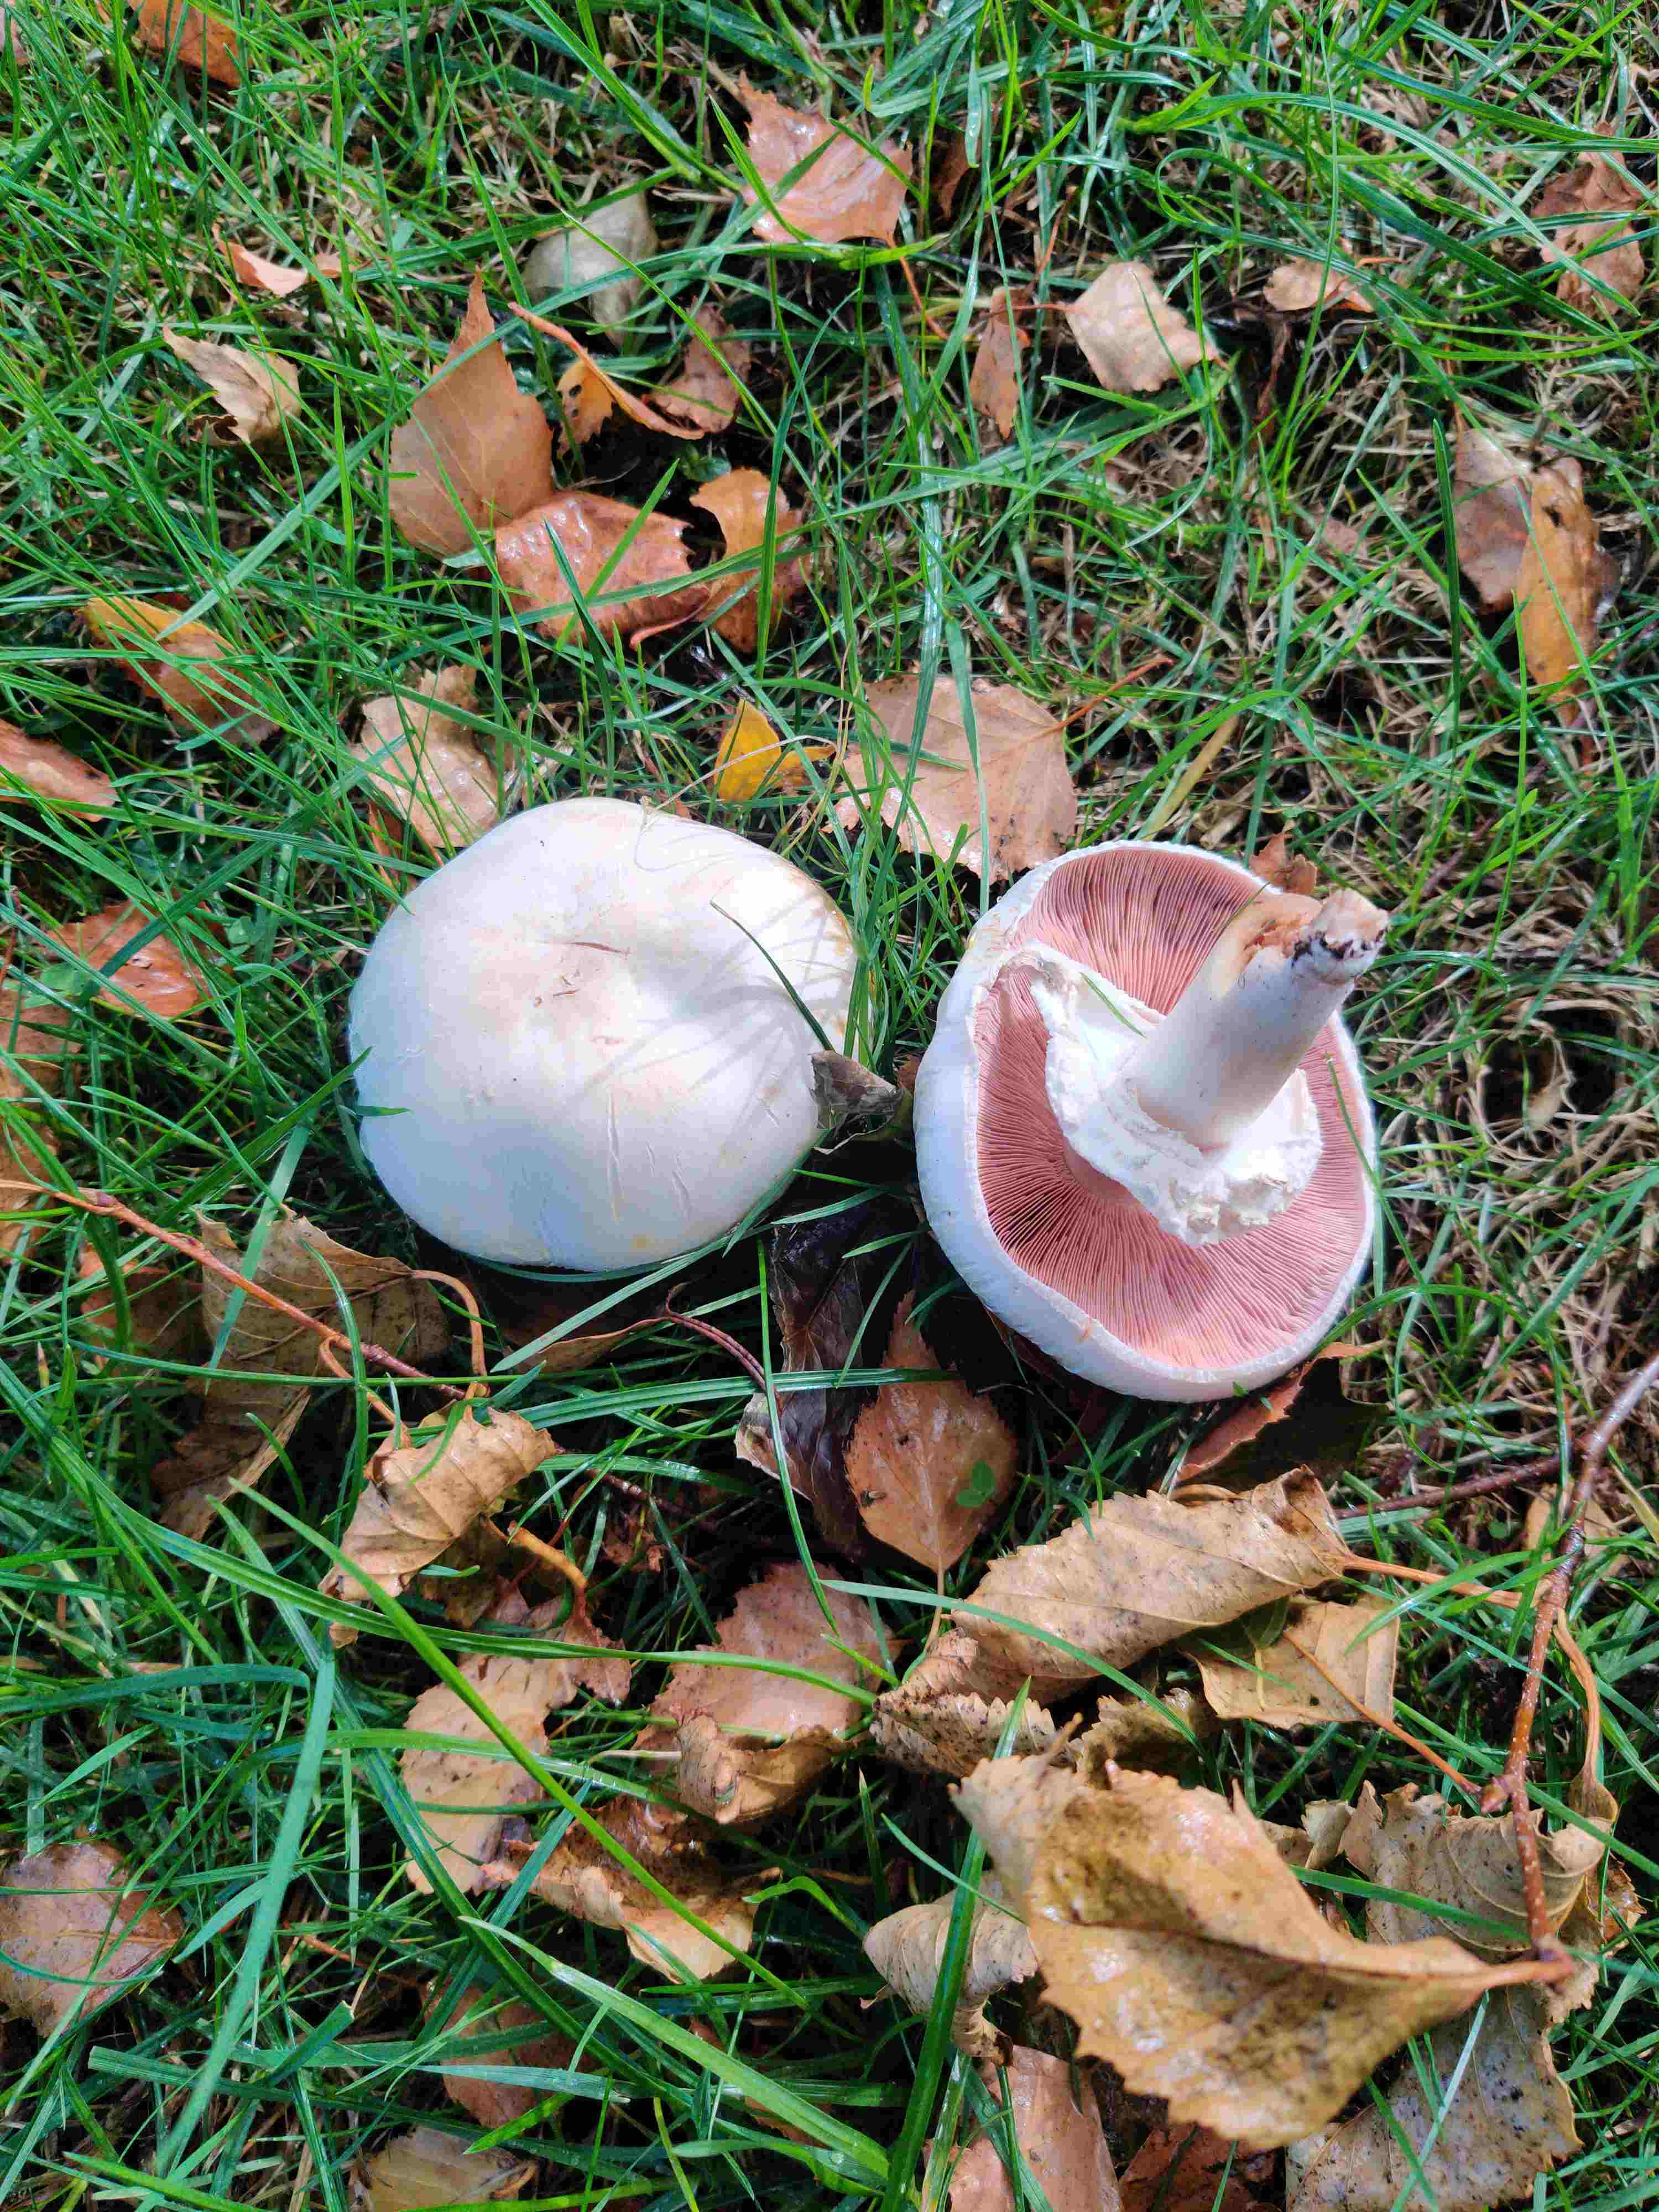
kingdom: Fungi
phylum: Basidiomycota
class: Agaricomycetes
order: Agaricales
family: Agaricaceae
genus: Agaricus
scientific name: Agaricus
